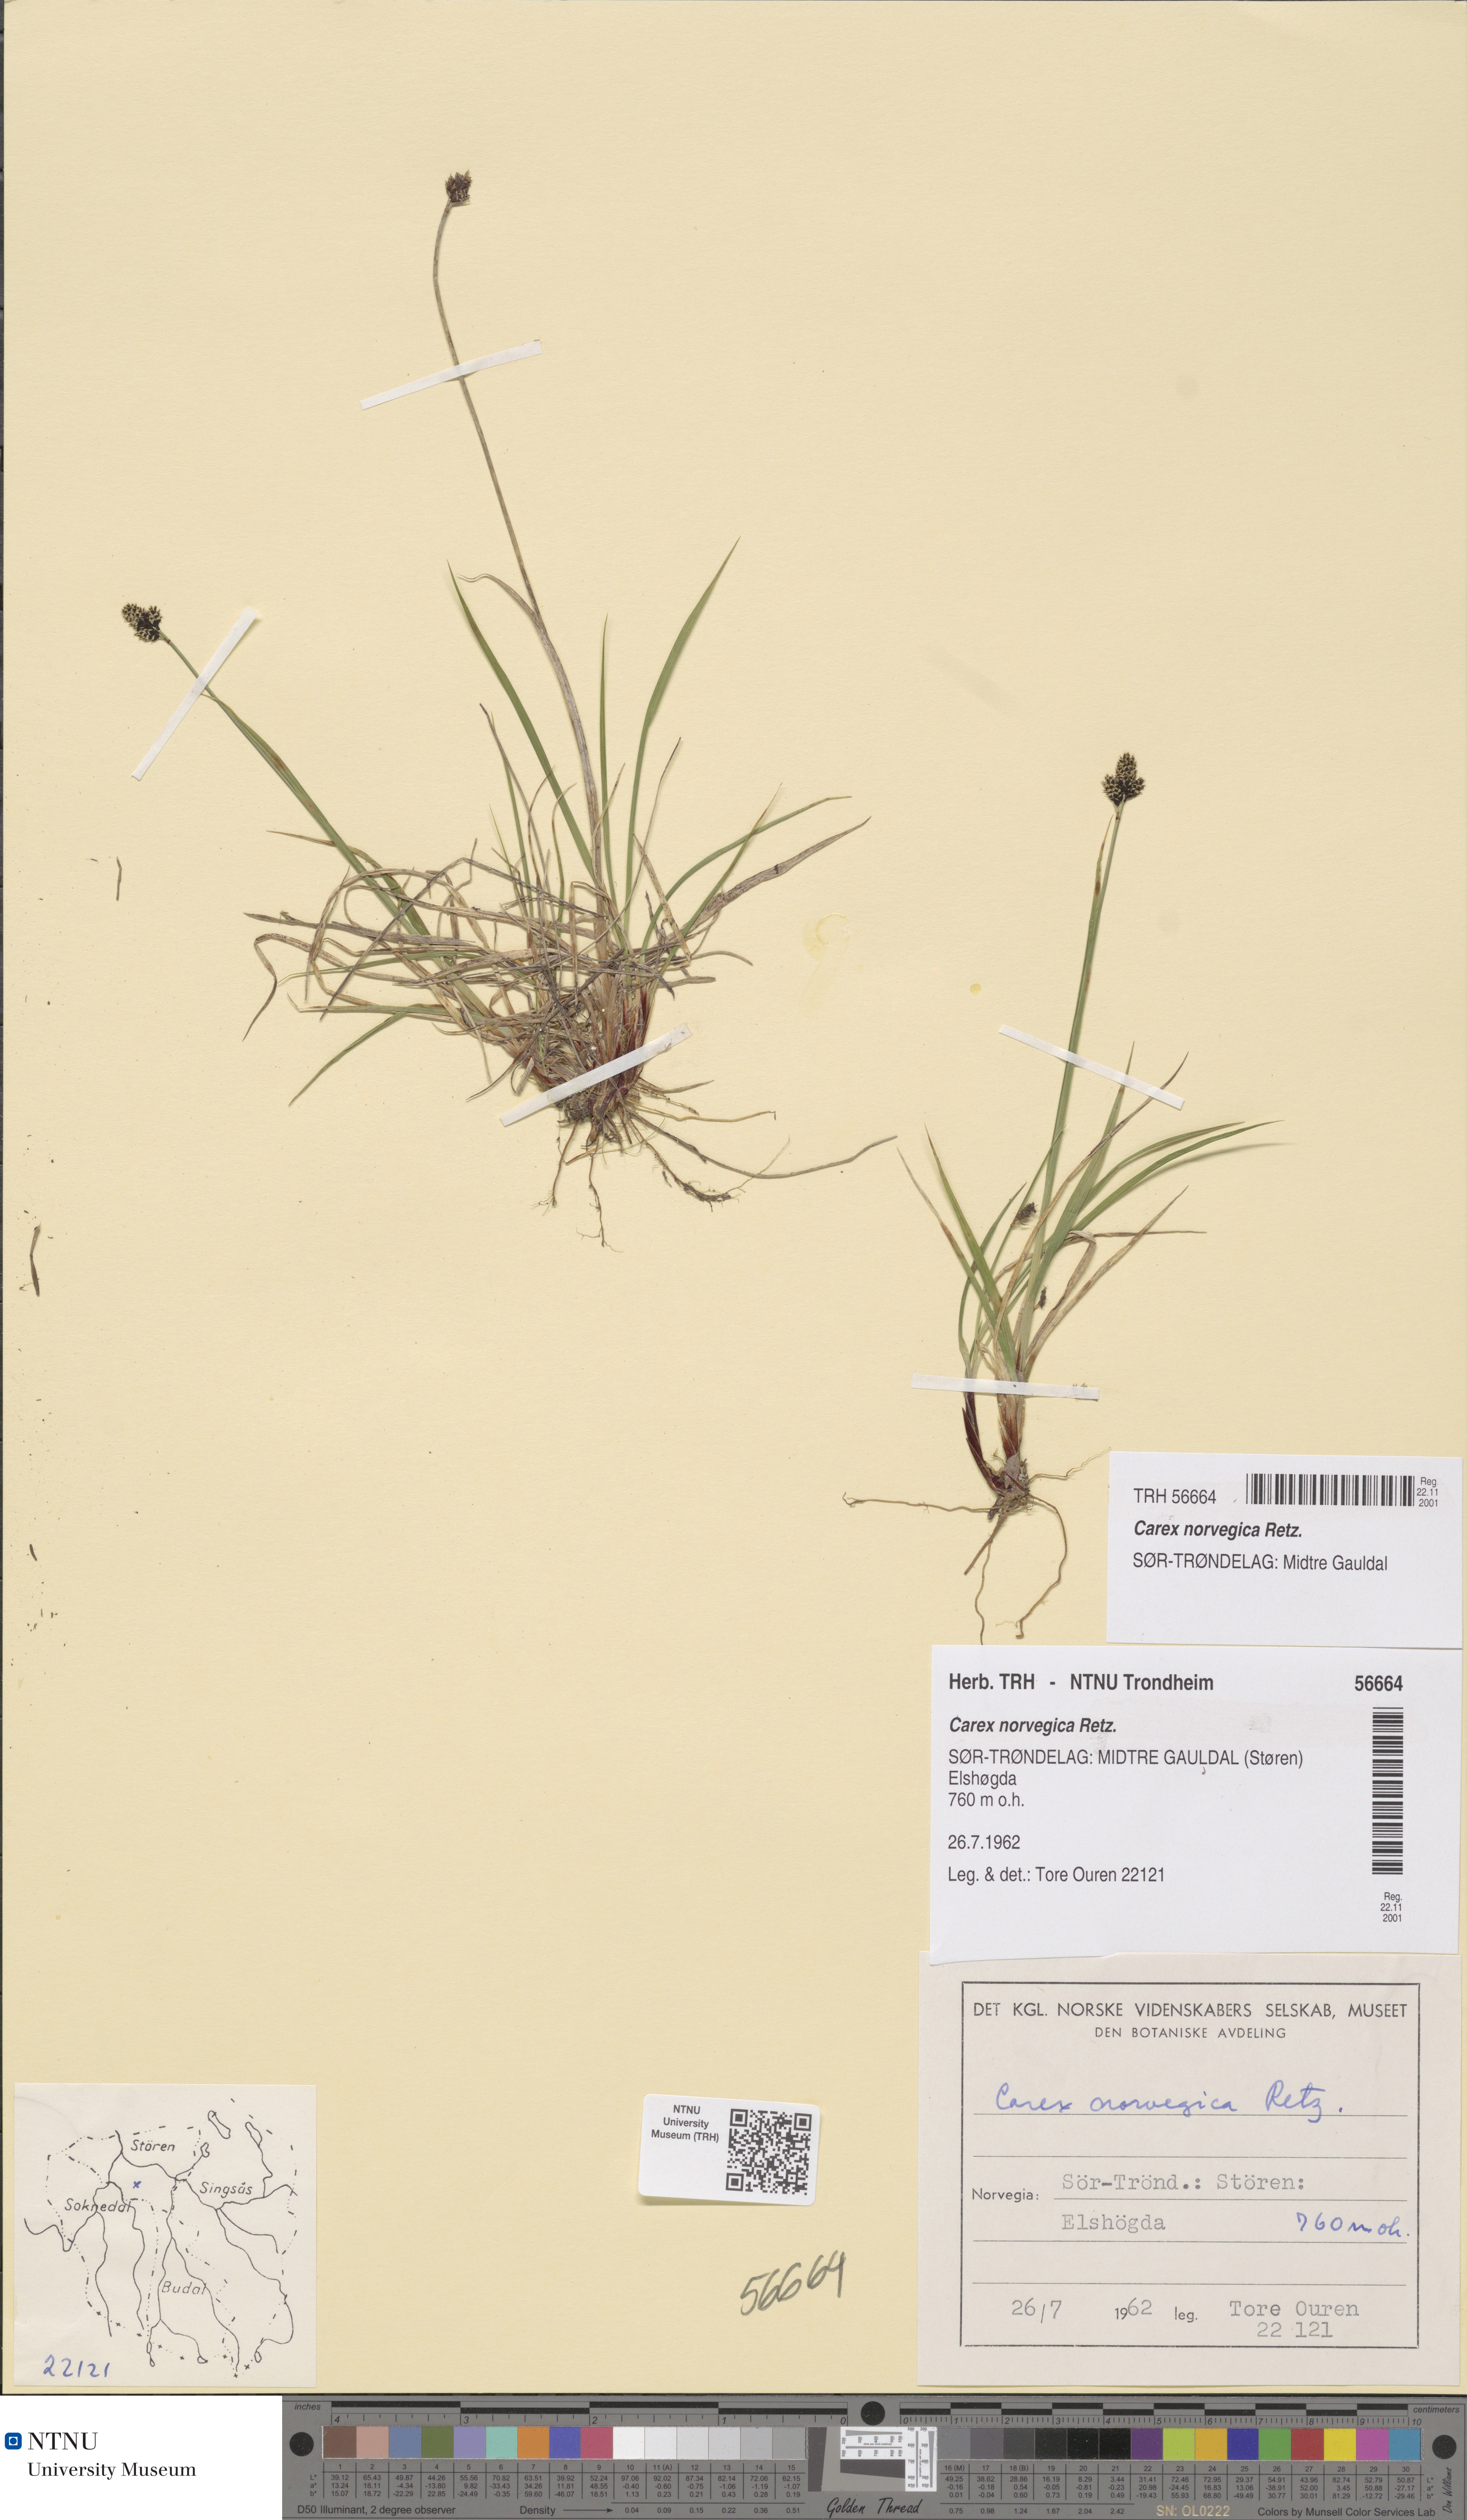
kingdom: Plantae
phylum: Tracheophyta
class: Liliopsida
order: Poales
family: Cyperaceae
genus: Carex
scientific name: Carex norvegica
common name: Close-headed alpine-sedge
